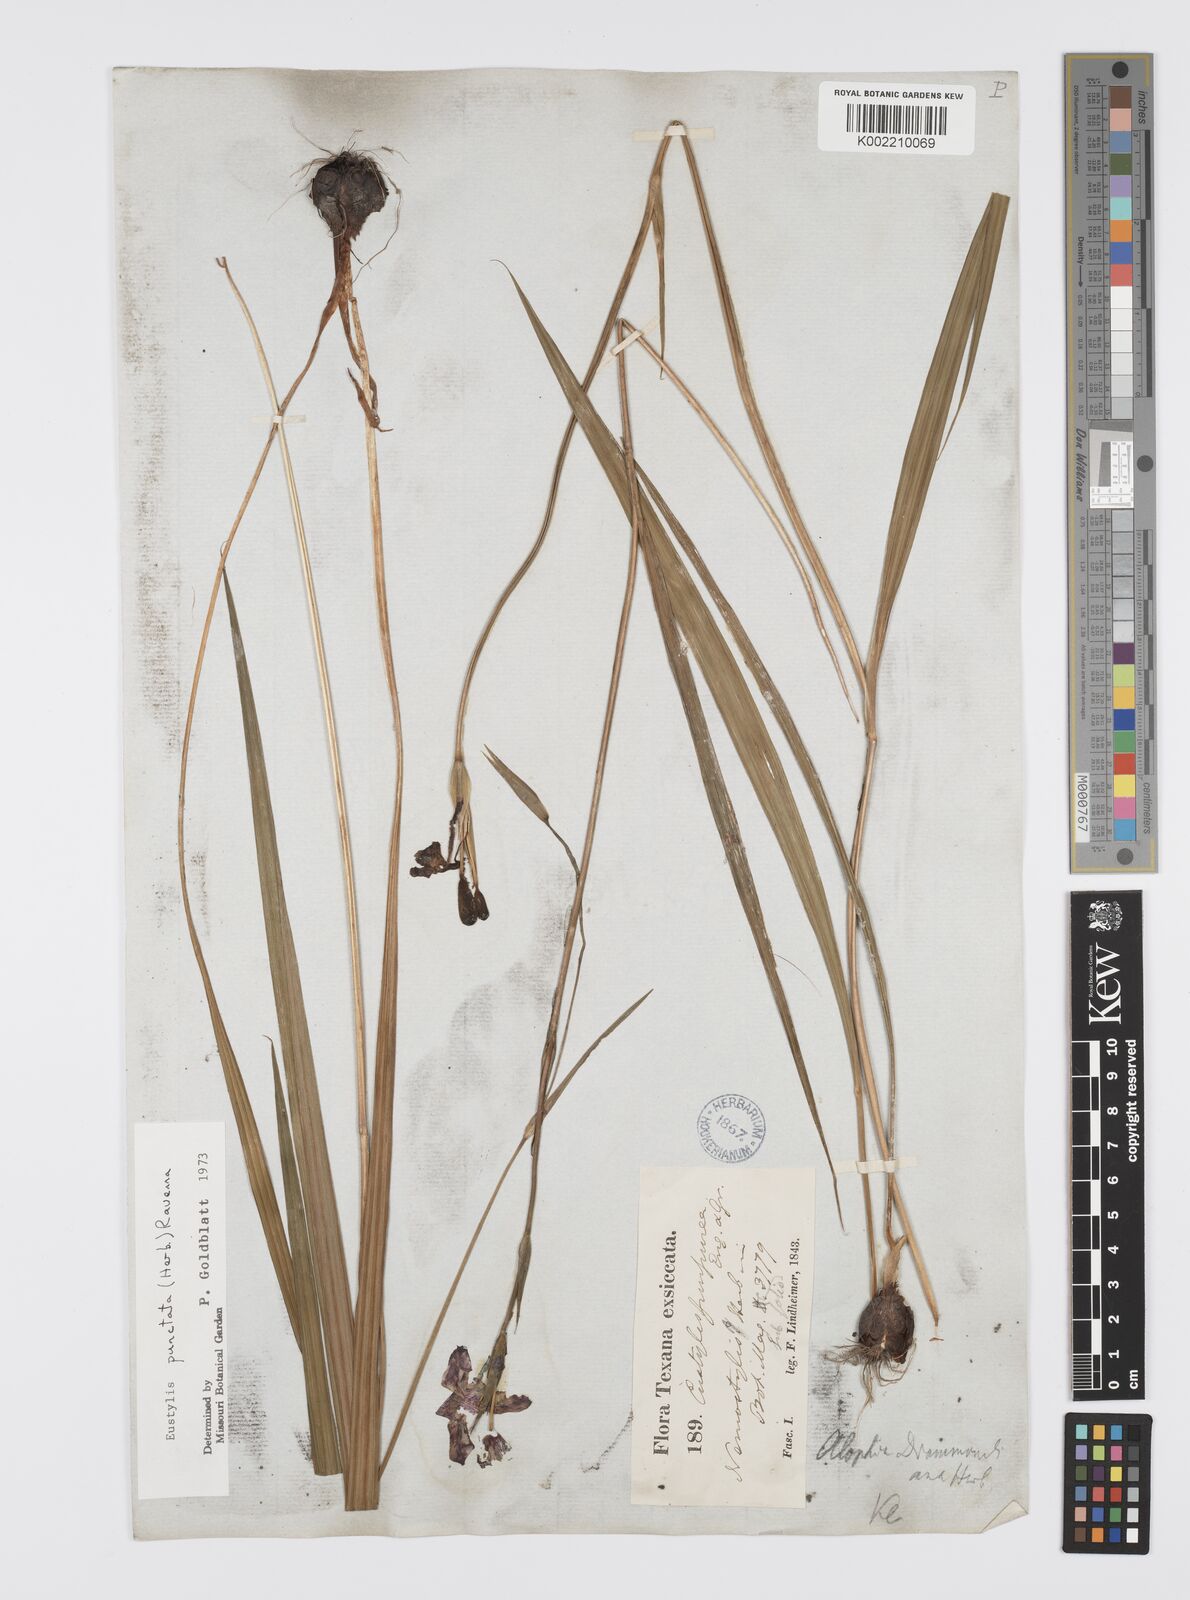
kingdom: Plantae
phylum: Tracheophyta
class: Liliopsida
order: Asparagales
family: Iridaceae
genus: Alophia
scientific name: Alophia drummondii
